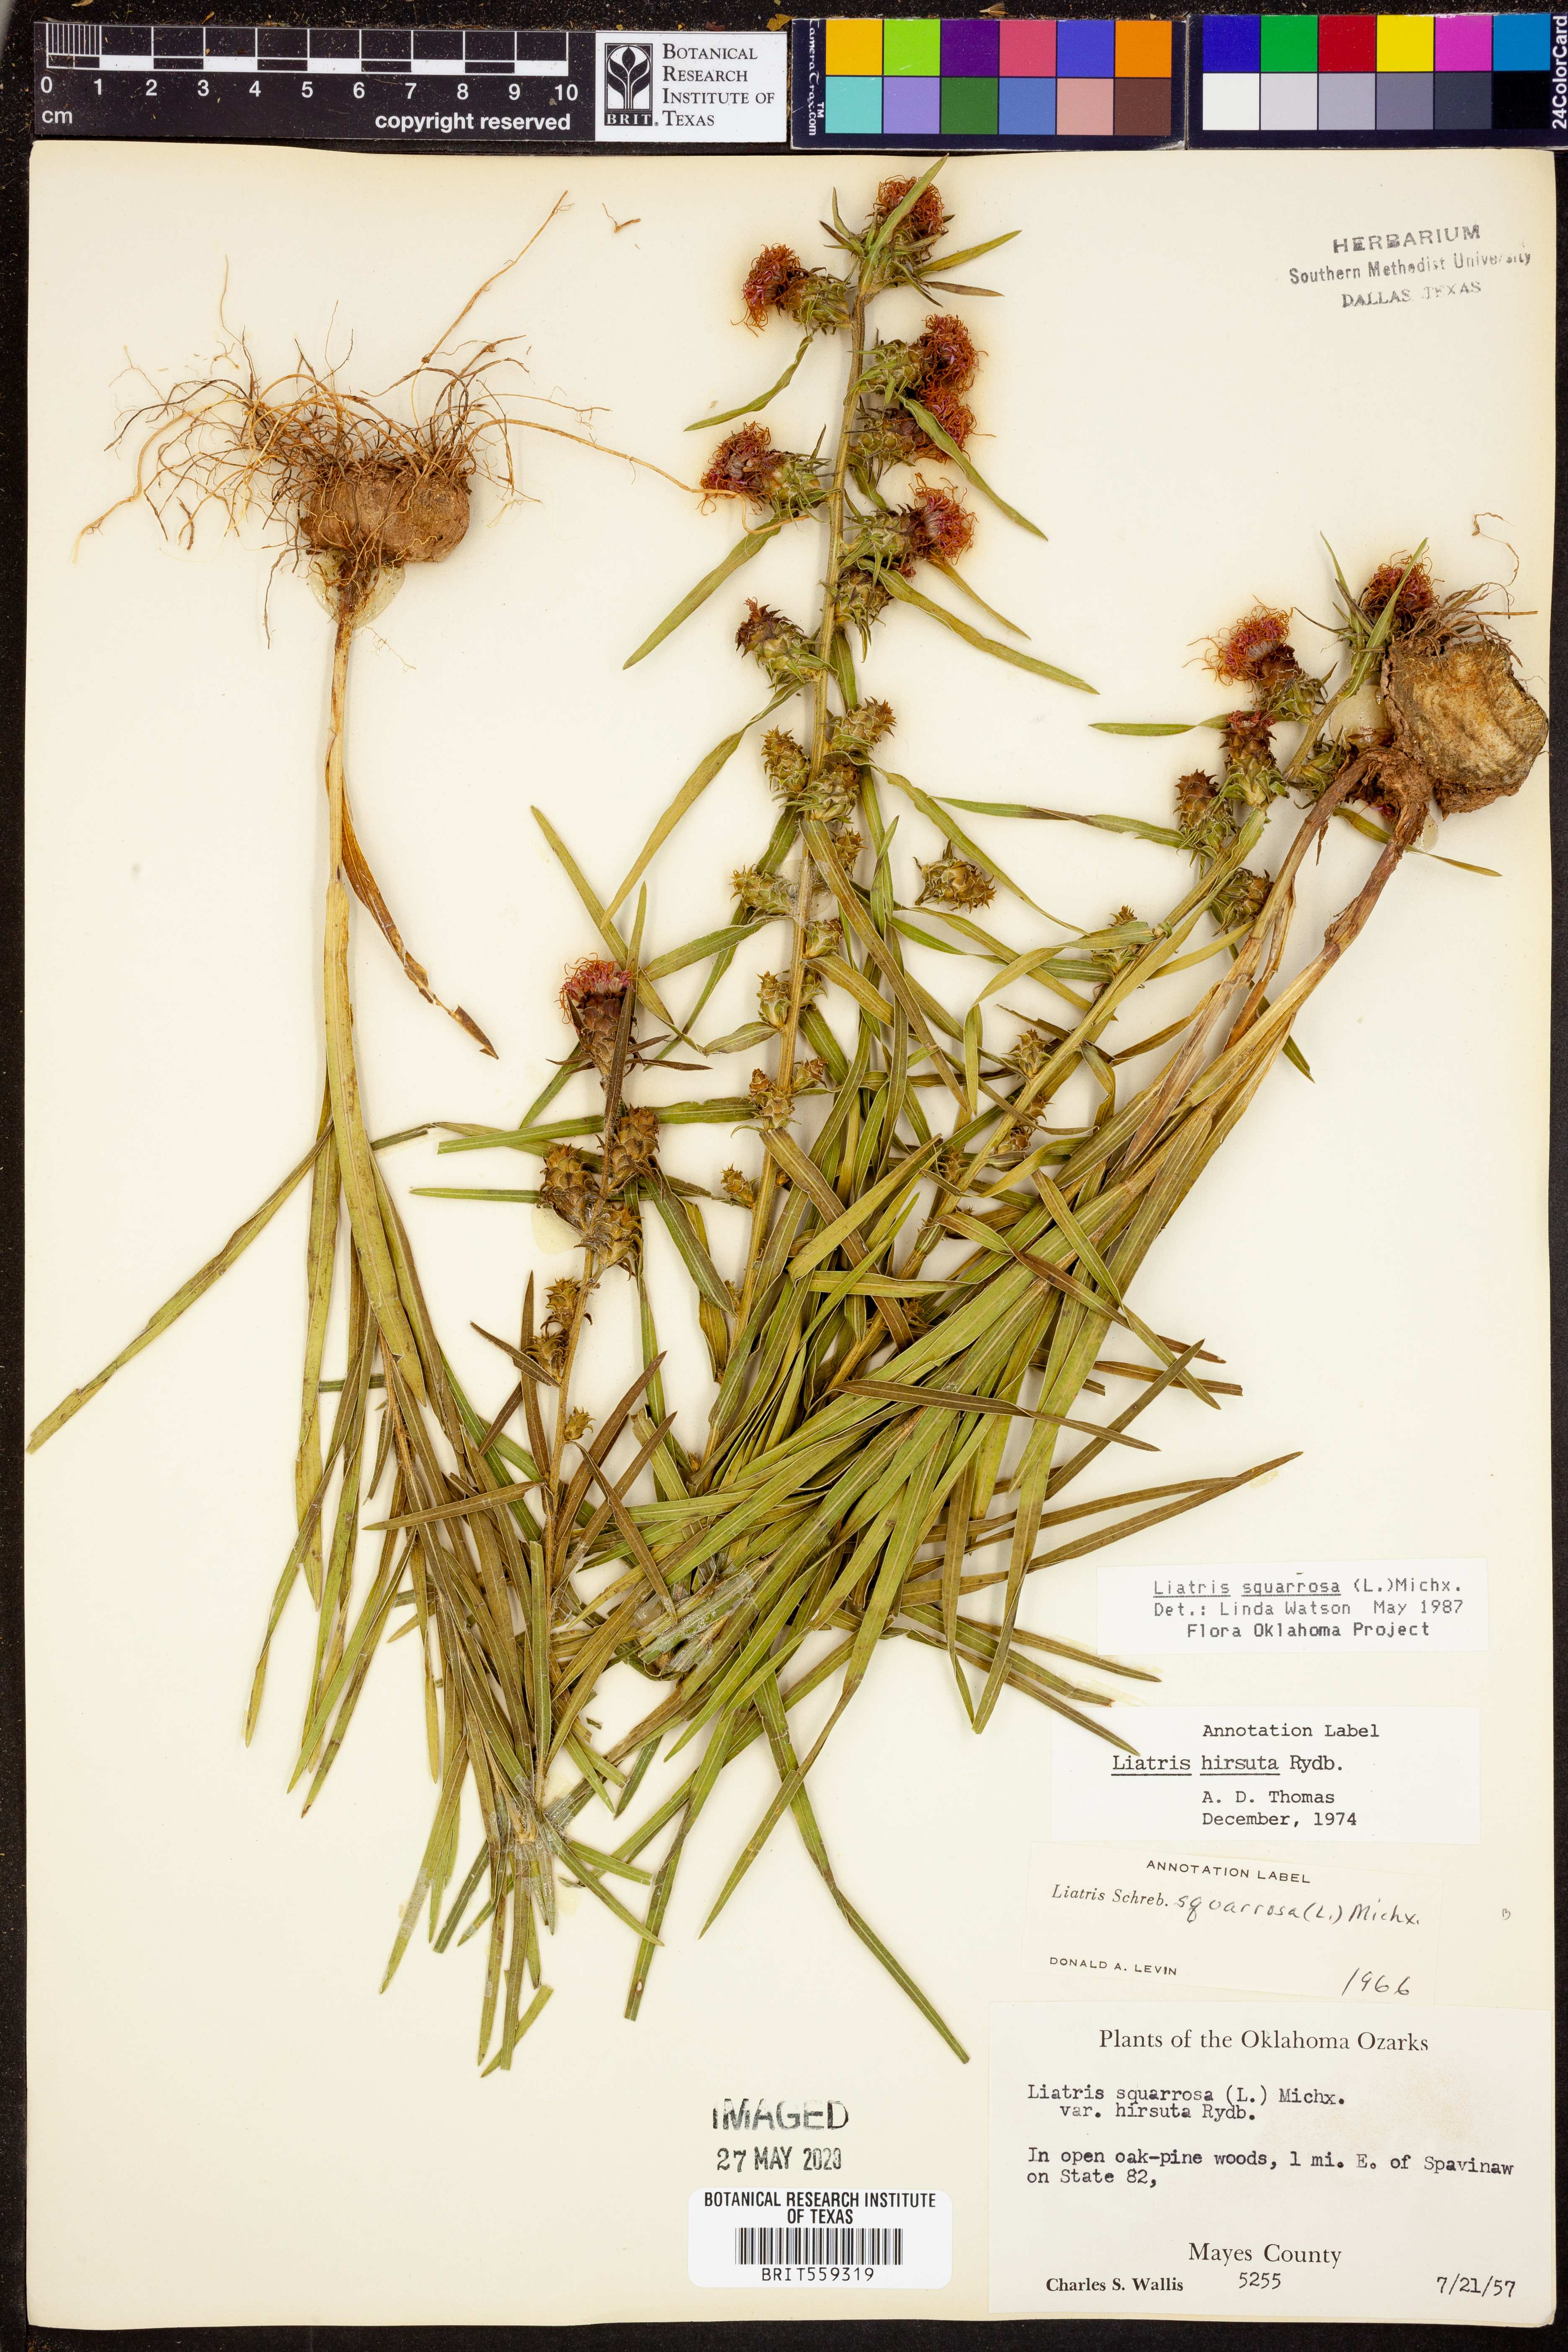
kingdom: Plantae
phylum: Tracheophyta
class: Magnoliopsida
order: Asterales
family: Asteraceae
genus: Liatris
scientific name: Liatris squarrosa
